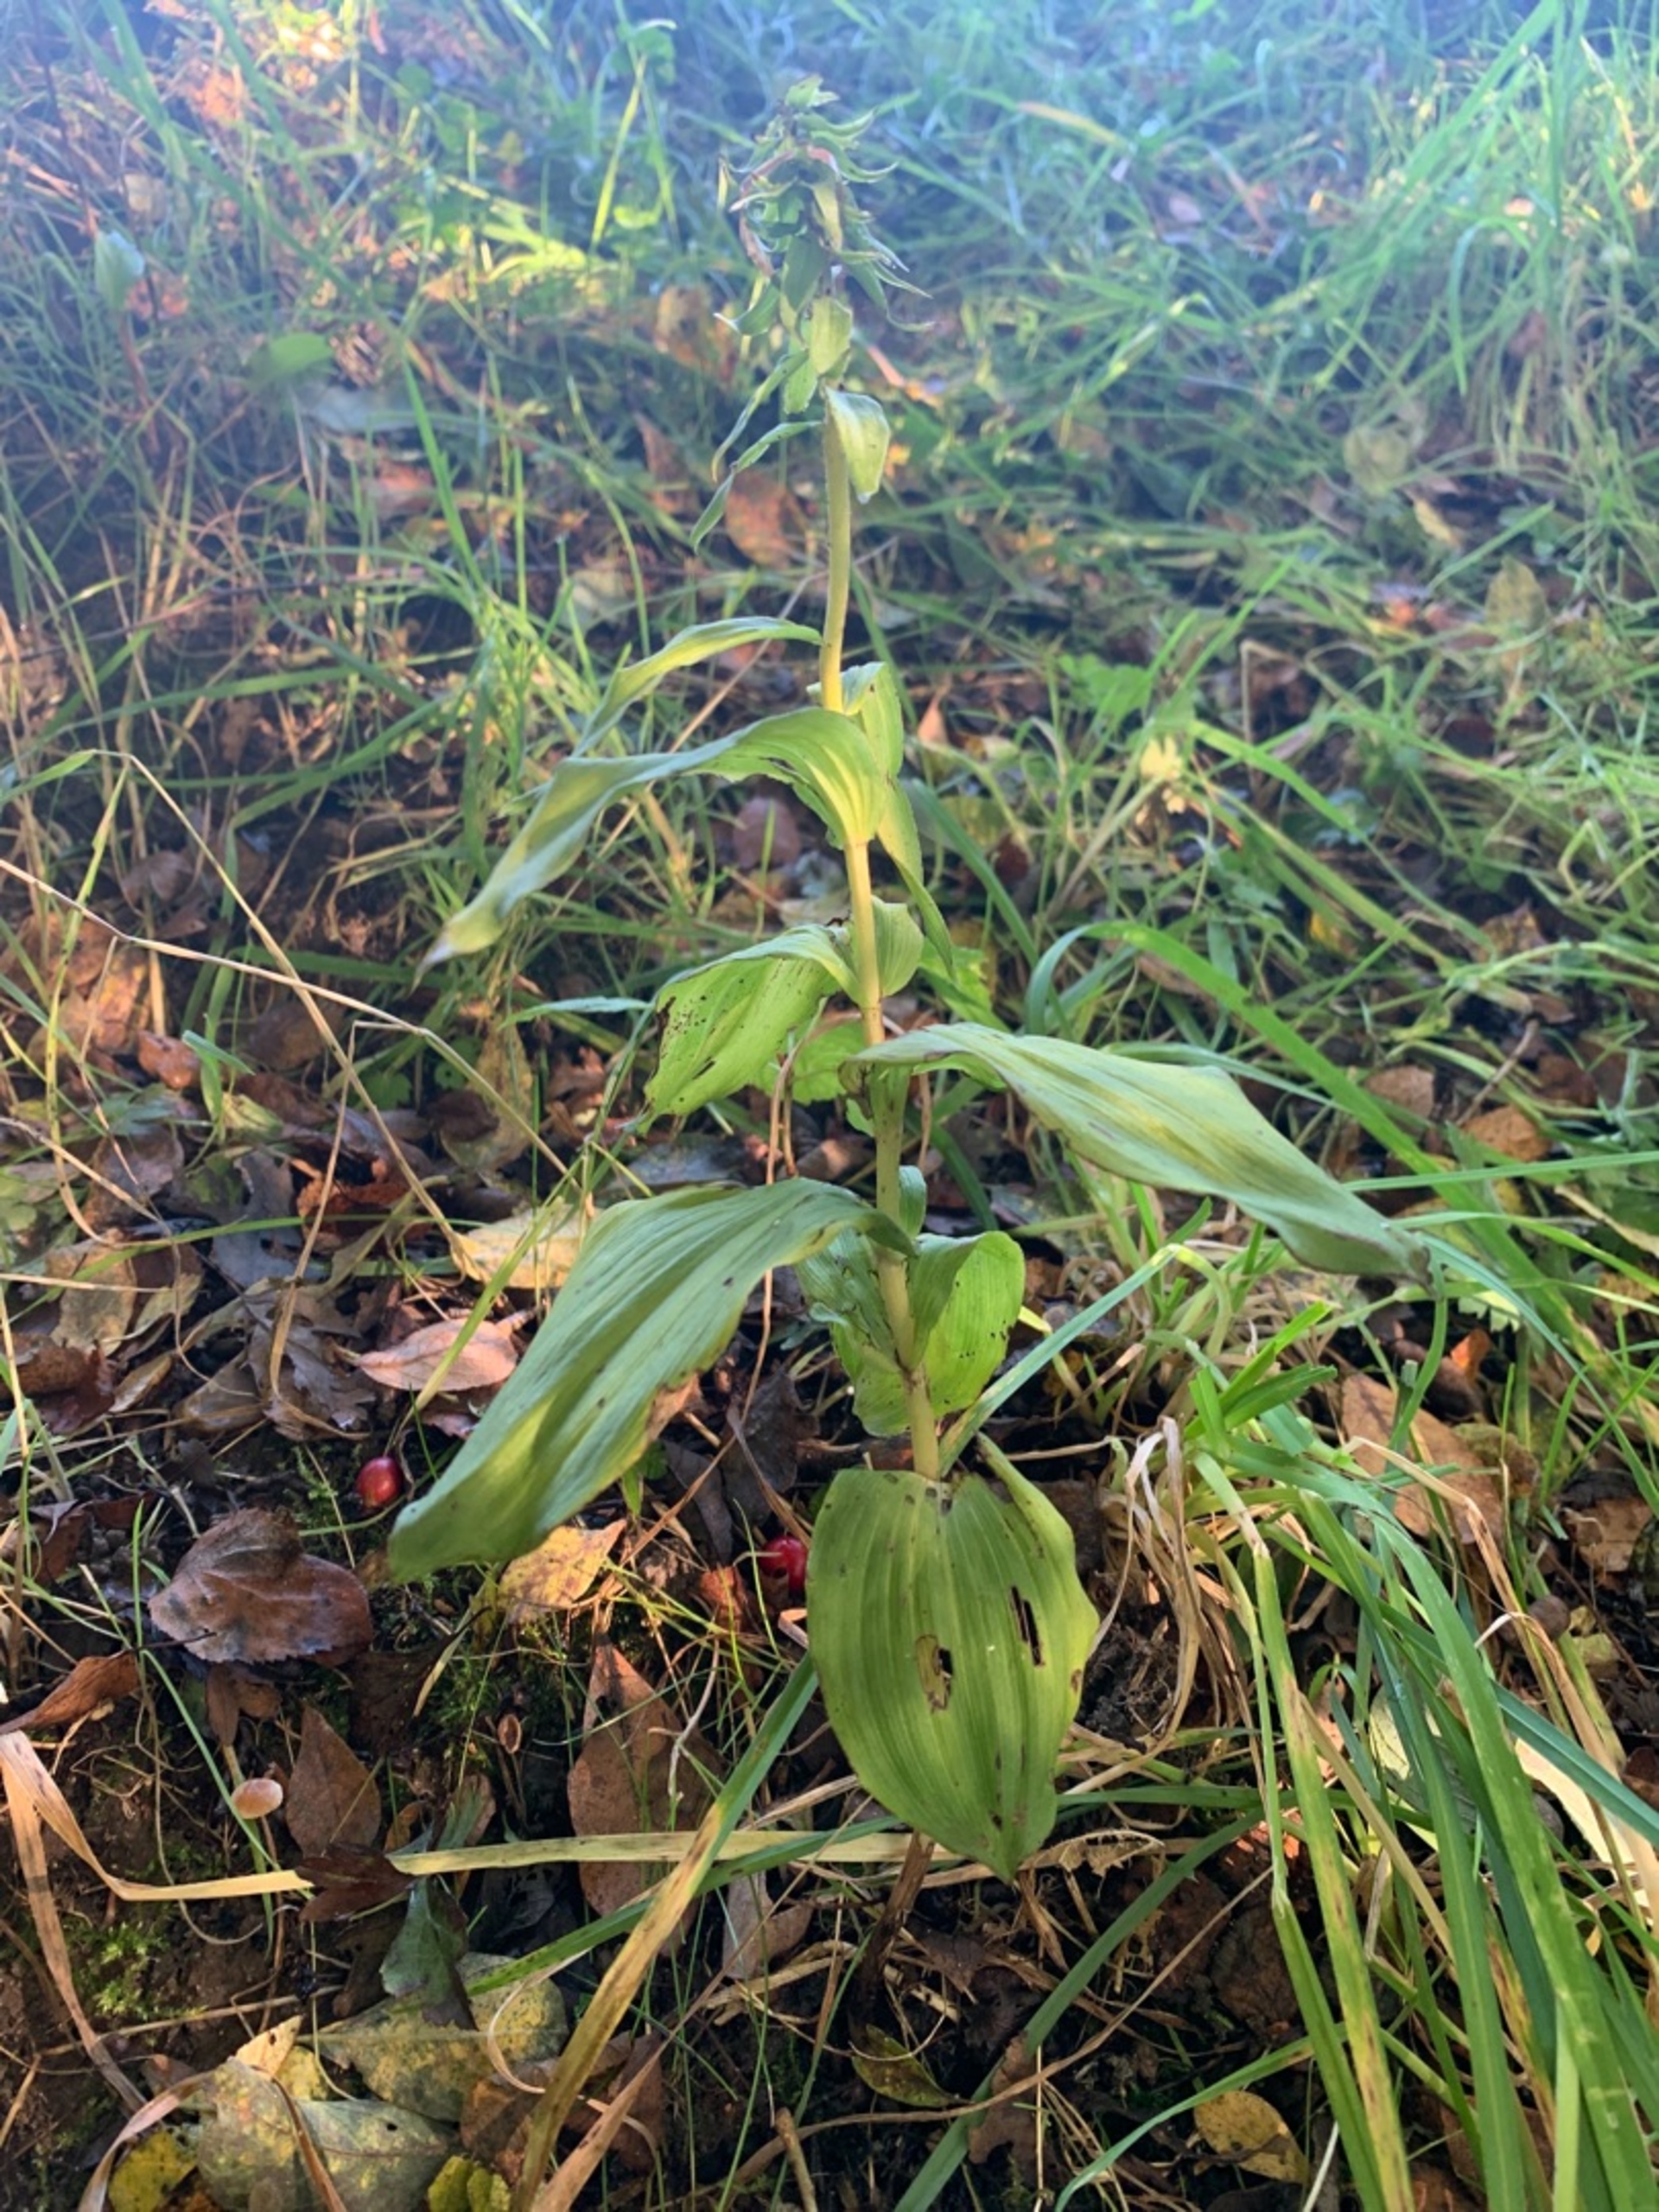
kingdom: Plantae
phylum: Tracheophyta
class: Liliopsida
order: Asparagales
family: Orchidaceae
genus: Epipactis
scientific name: Epipactis helleborine
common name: Skov-hullæbe
